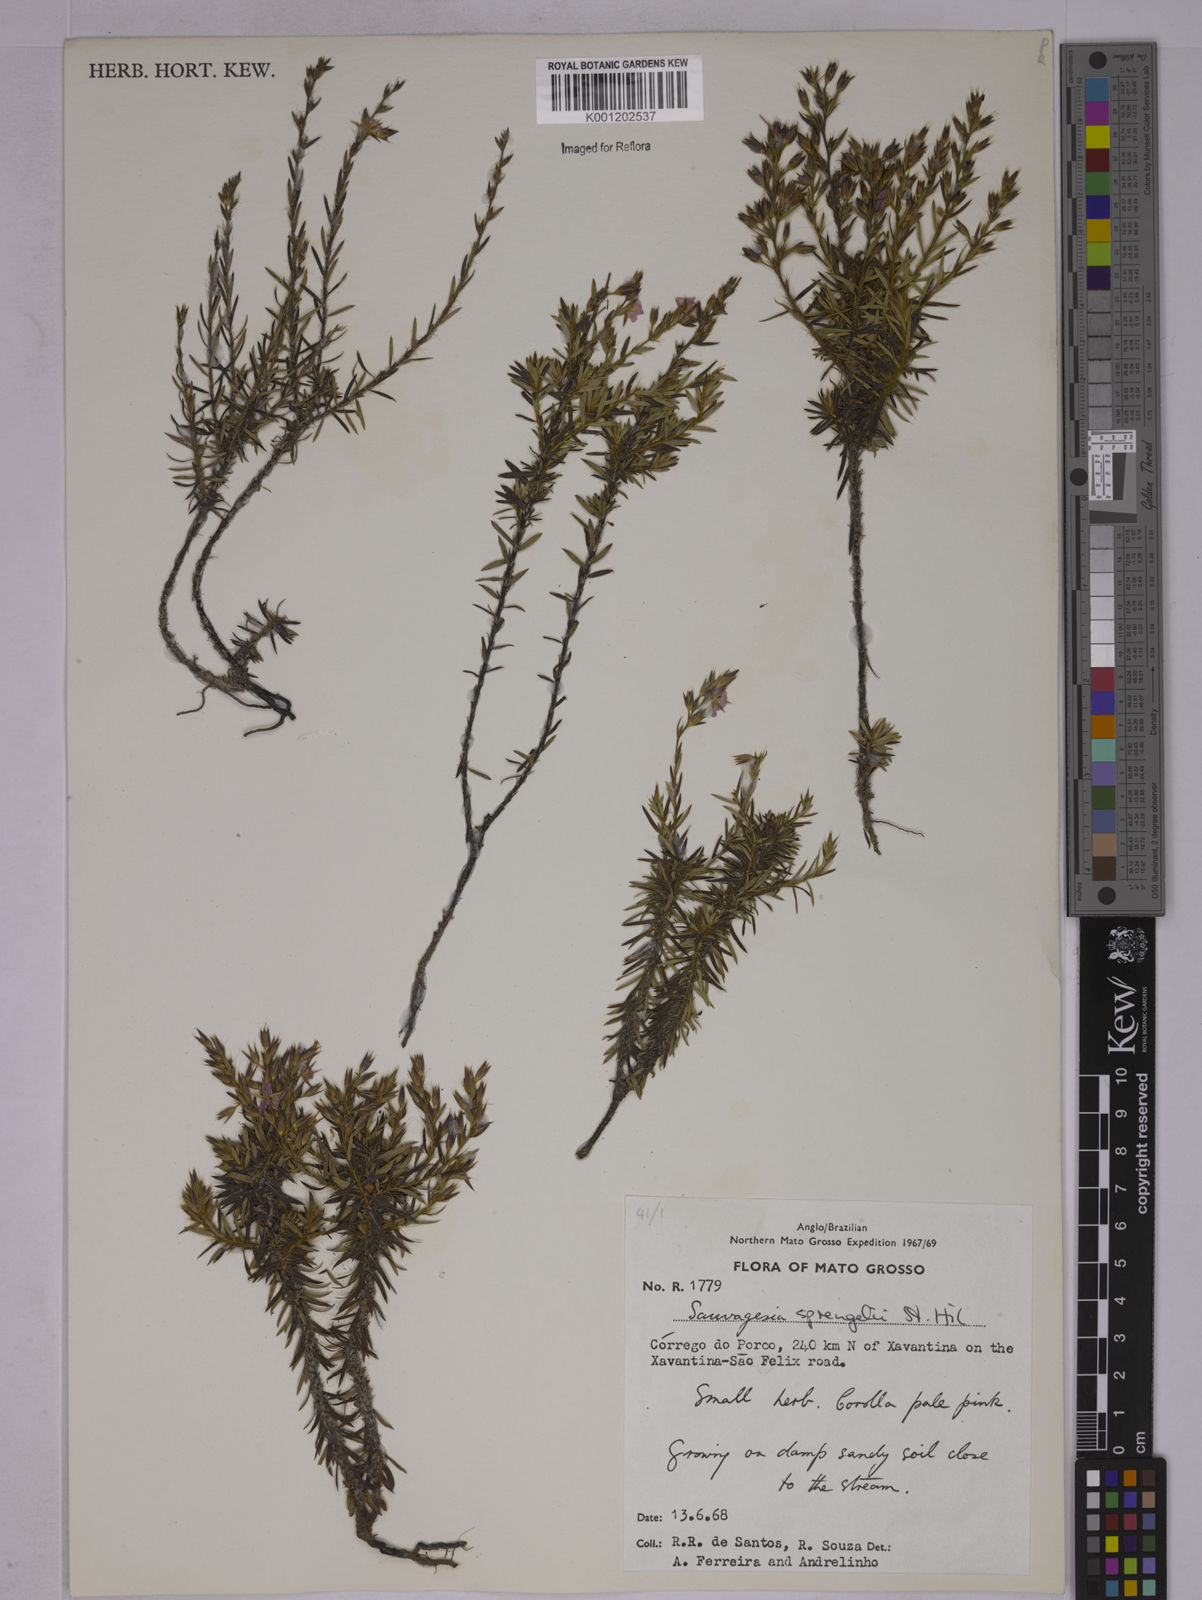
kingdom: Plantae
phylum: Tracheophyta
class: Magnoliopsida
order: Malpighiales
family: Ochnaceae
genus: Sauvagesia
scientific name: Sauvagesia sprengelii
